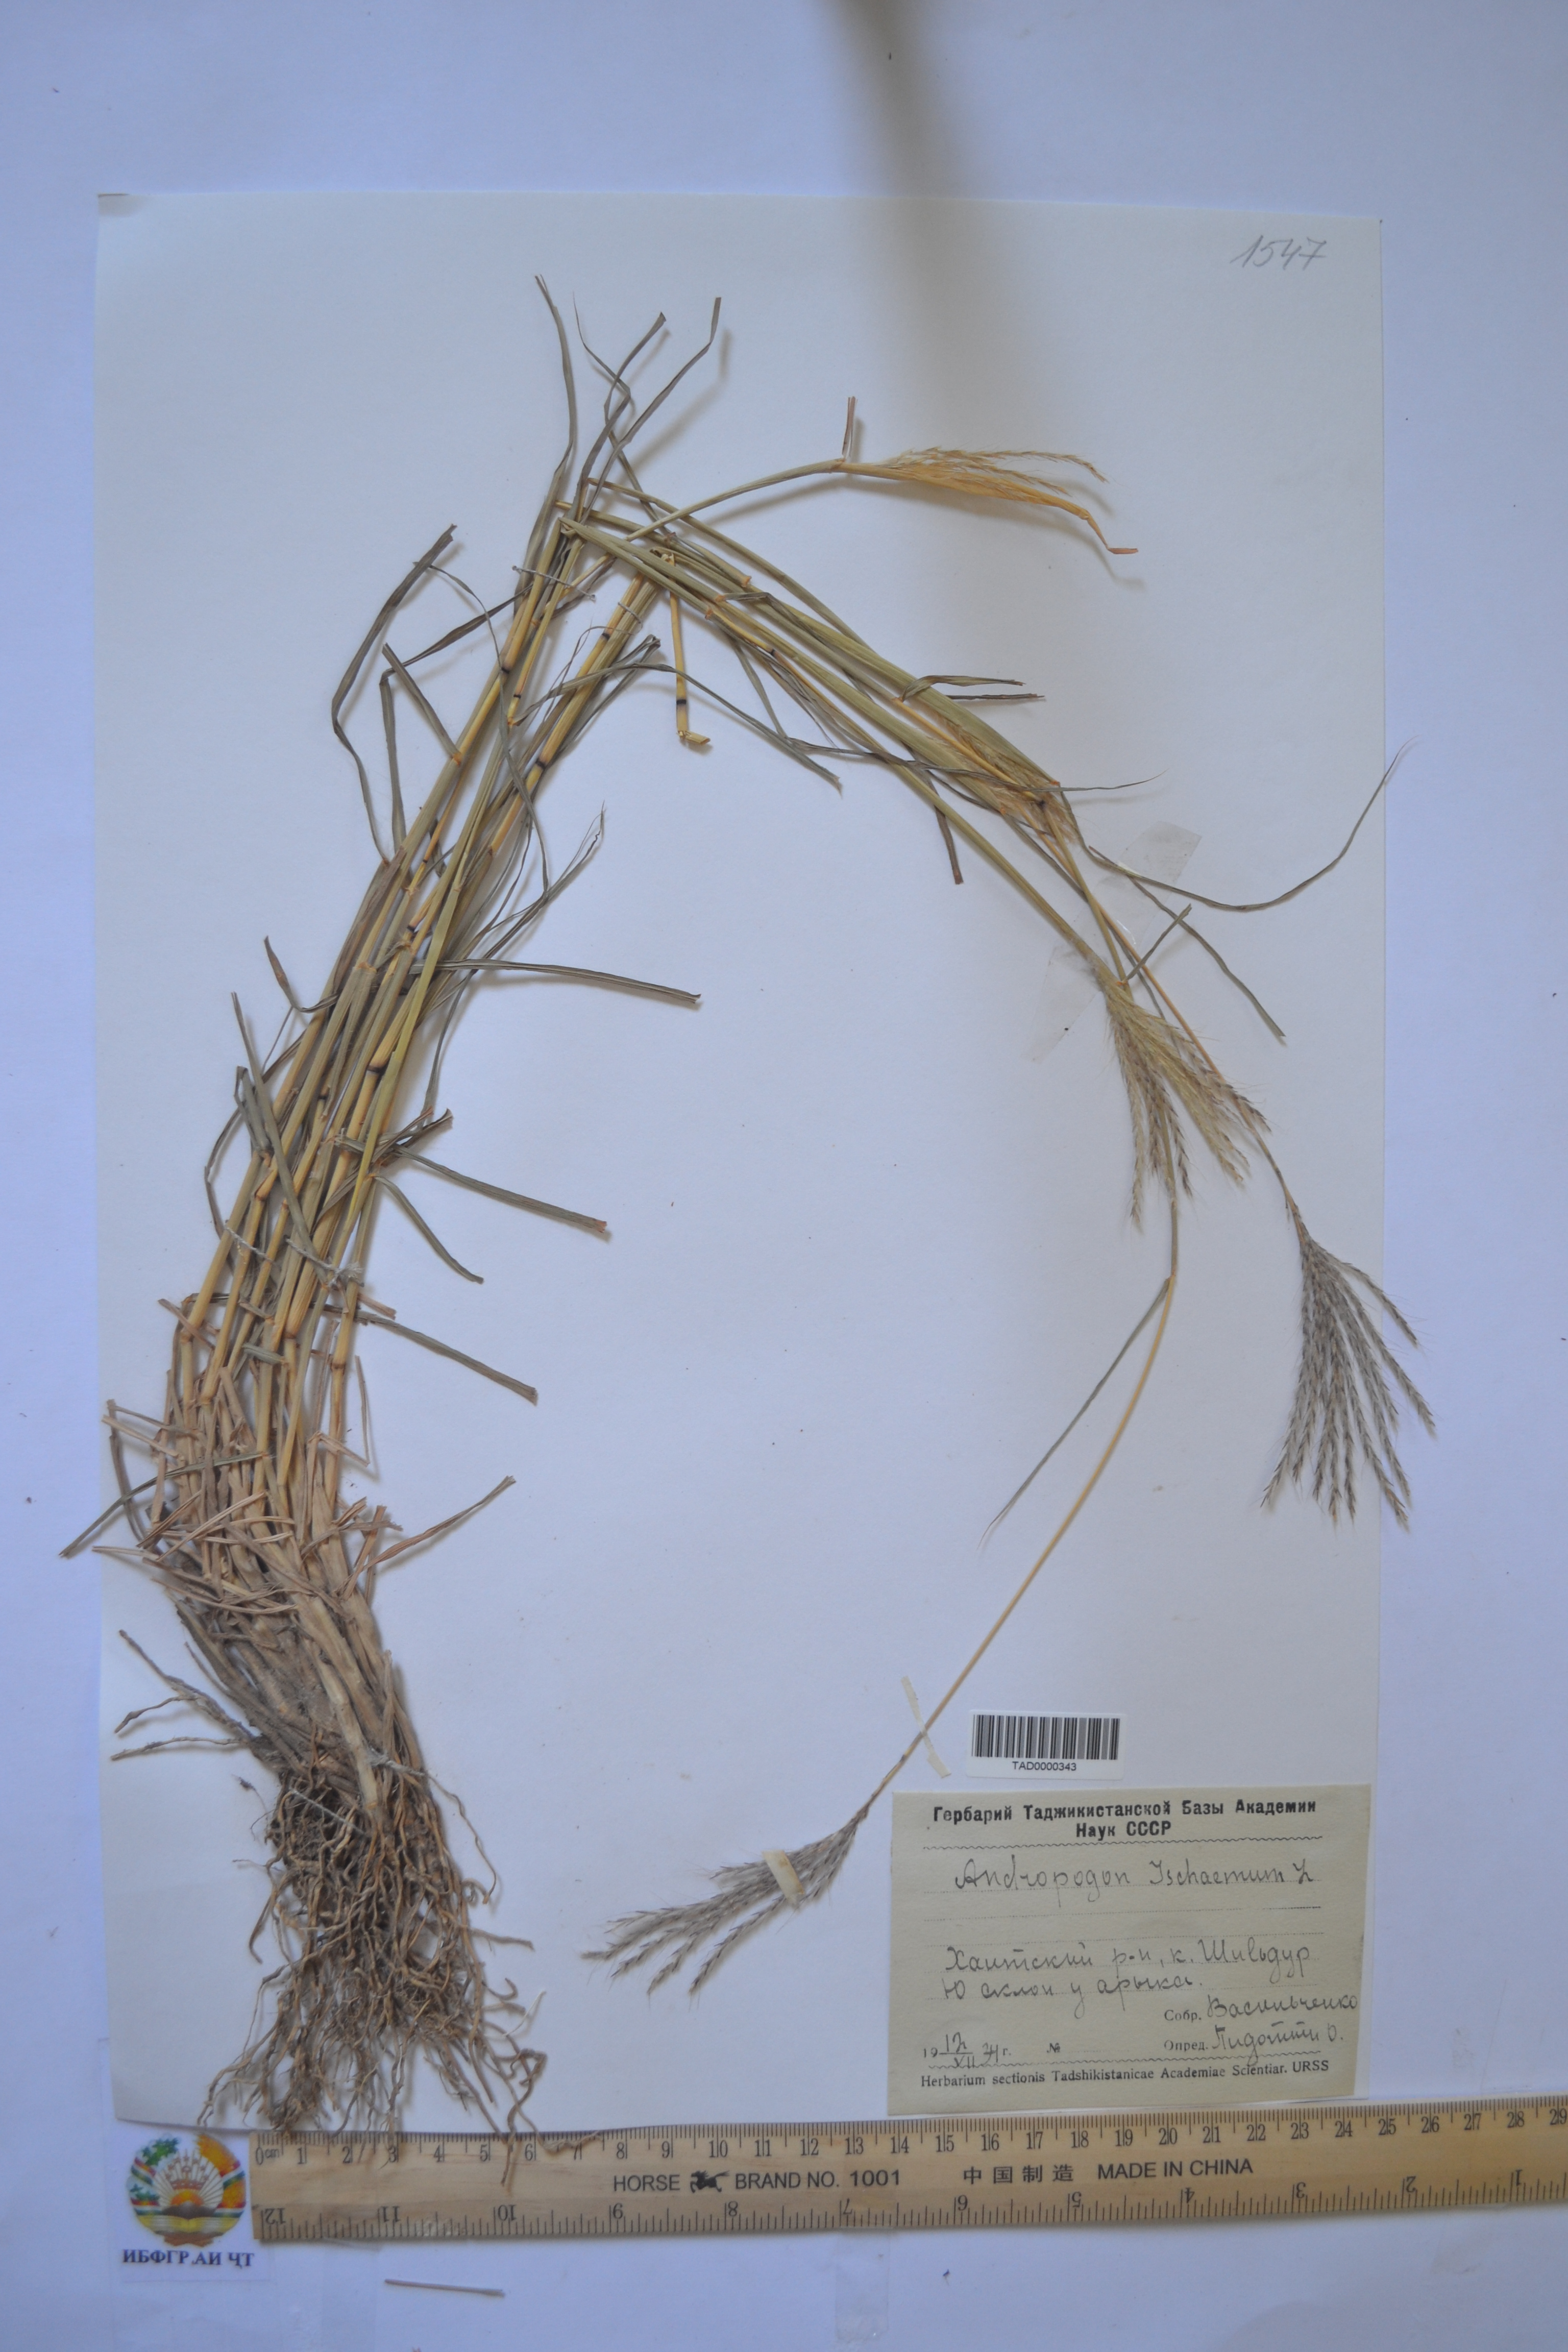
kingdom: Plantae
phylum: Tracheophyta
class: Liliopsida
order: Poales
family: Poaceae
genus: Andropogon
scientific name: Andropogon ischaemum
